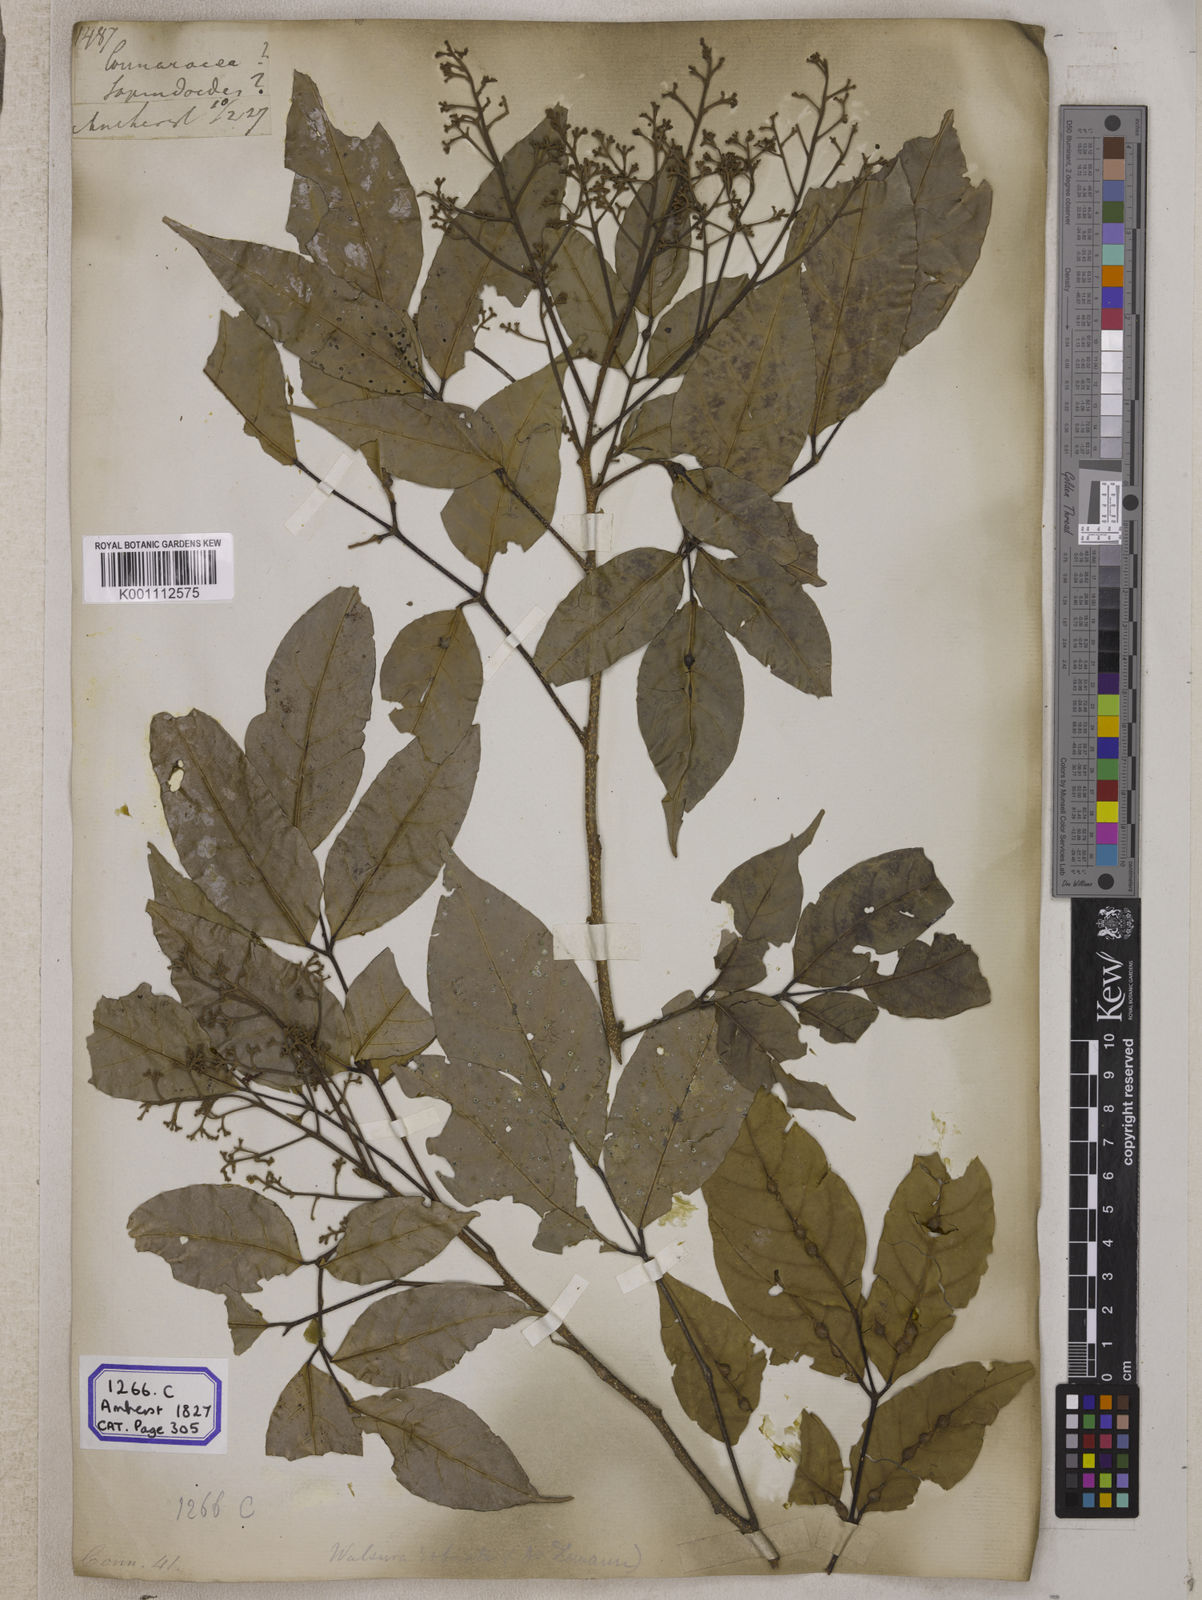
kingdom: Plantae
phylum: Tracheophyta
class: Magnoliopsida
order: Sapindales
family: Meliaceae
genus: Walsura
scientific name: Walsura robusta
